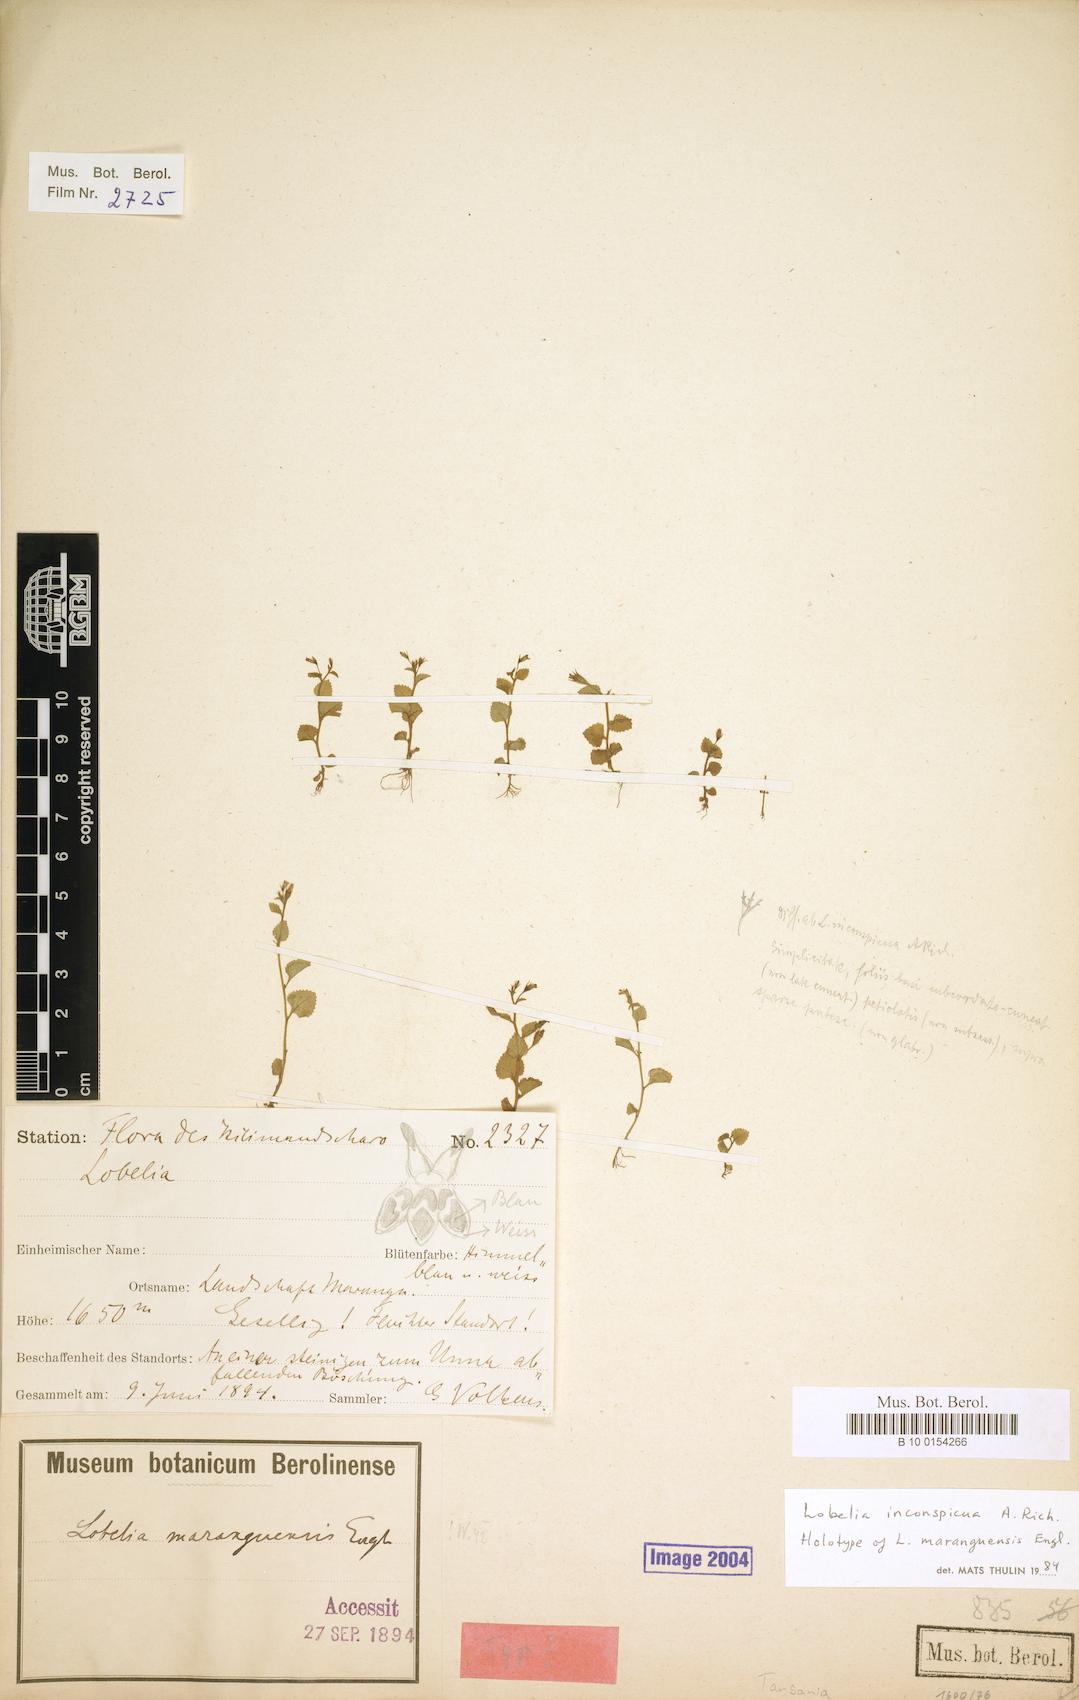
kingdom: Plantae
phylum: Tracheophyta
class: Magnoliopsida
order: Asterales
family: Campanulaceae
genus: Lobelia
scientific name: Lobelia inconspicua
